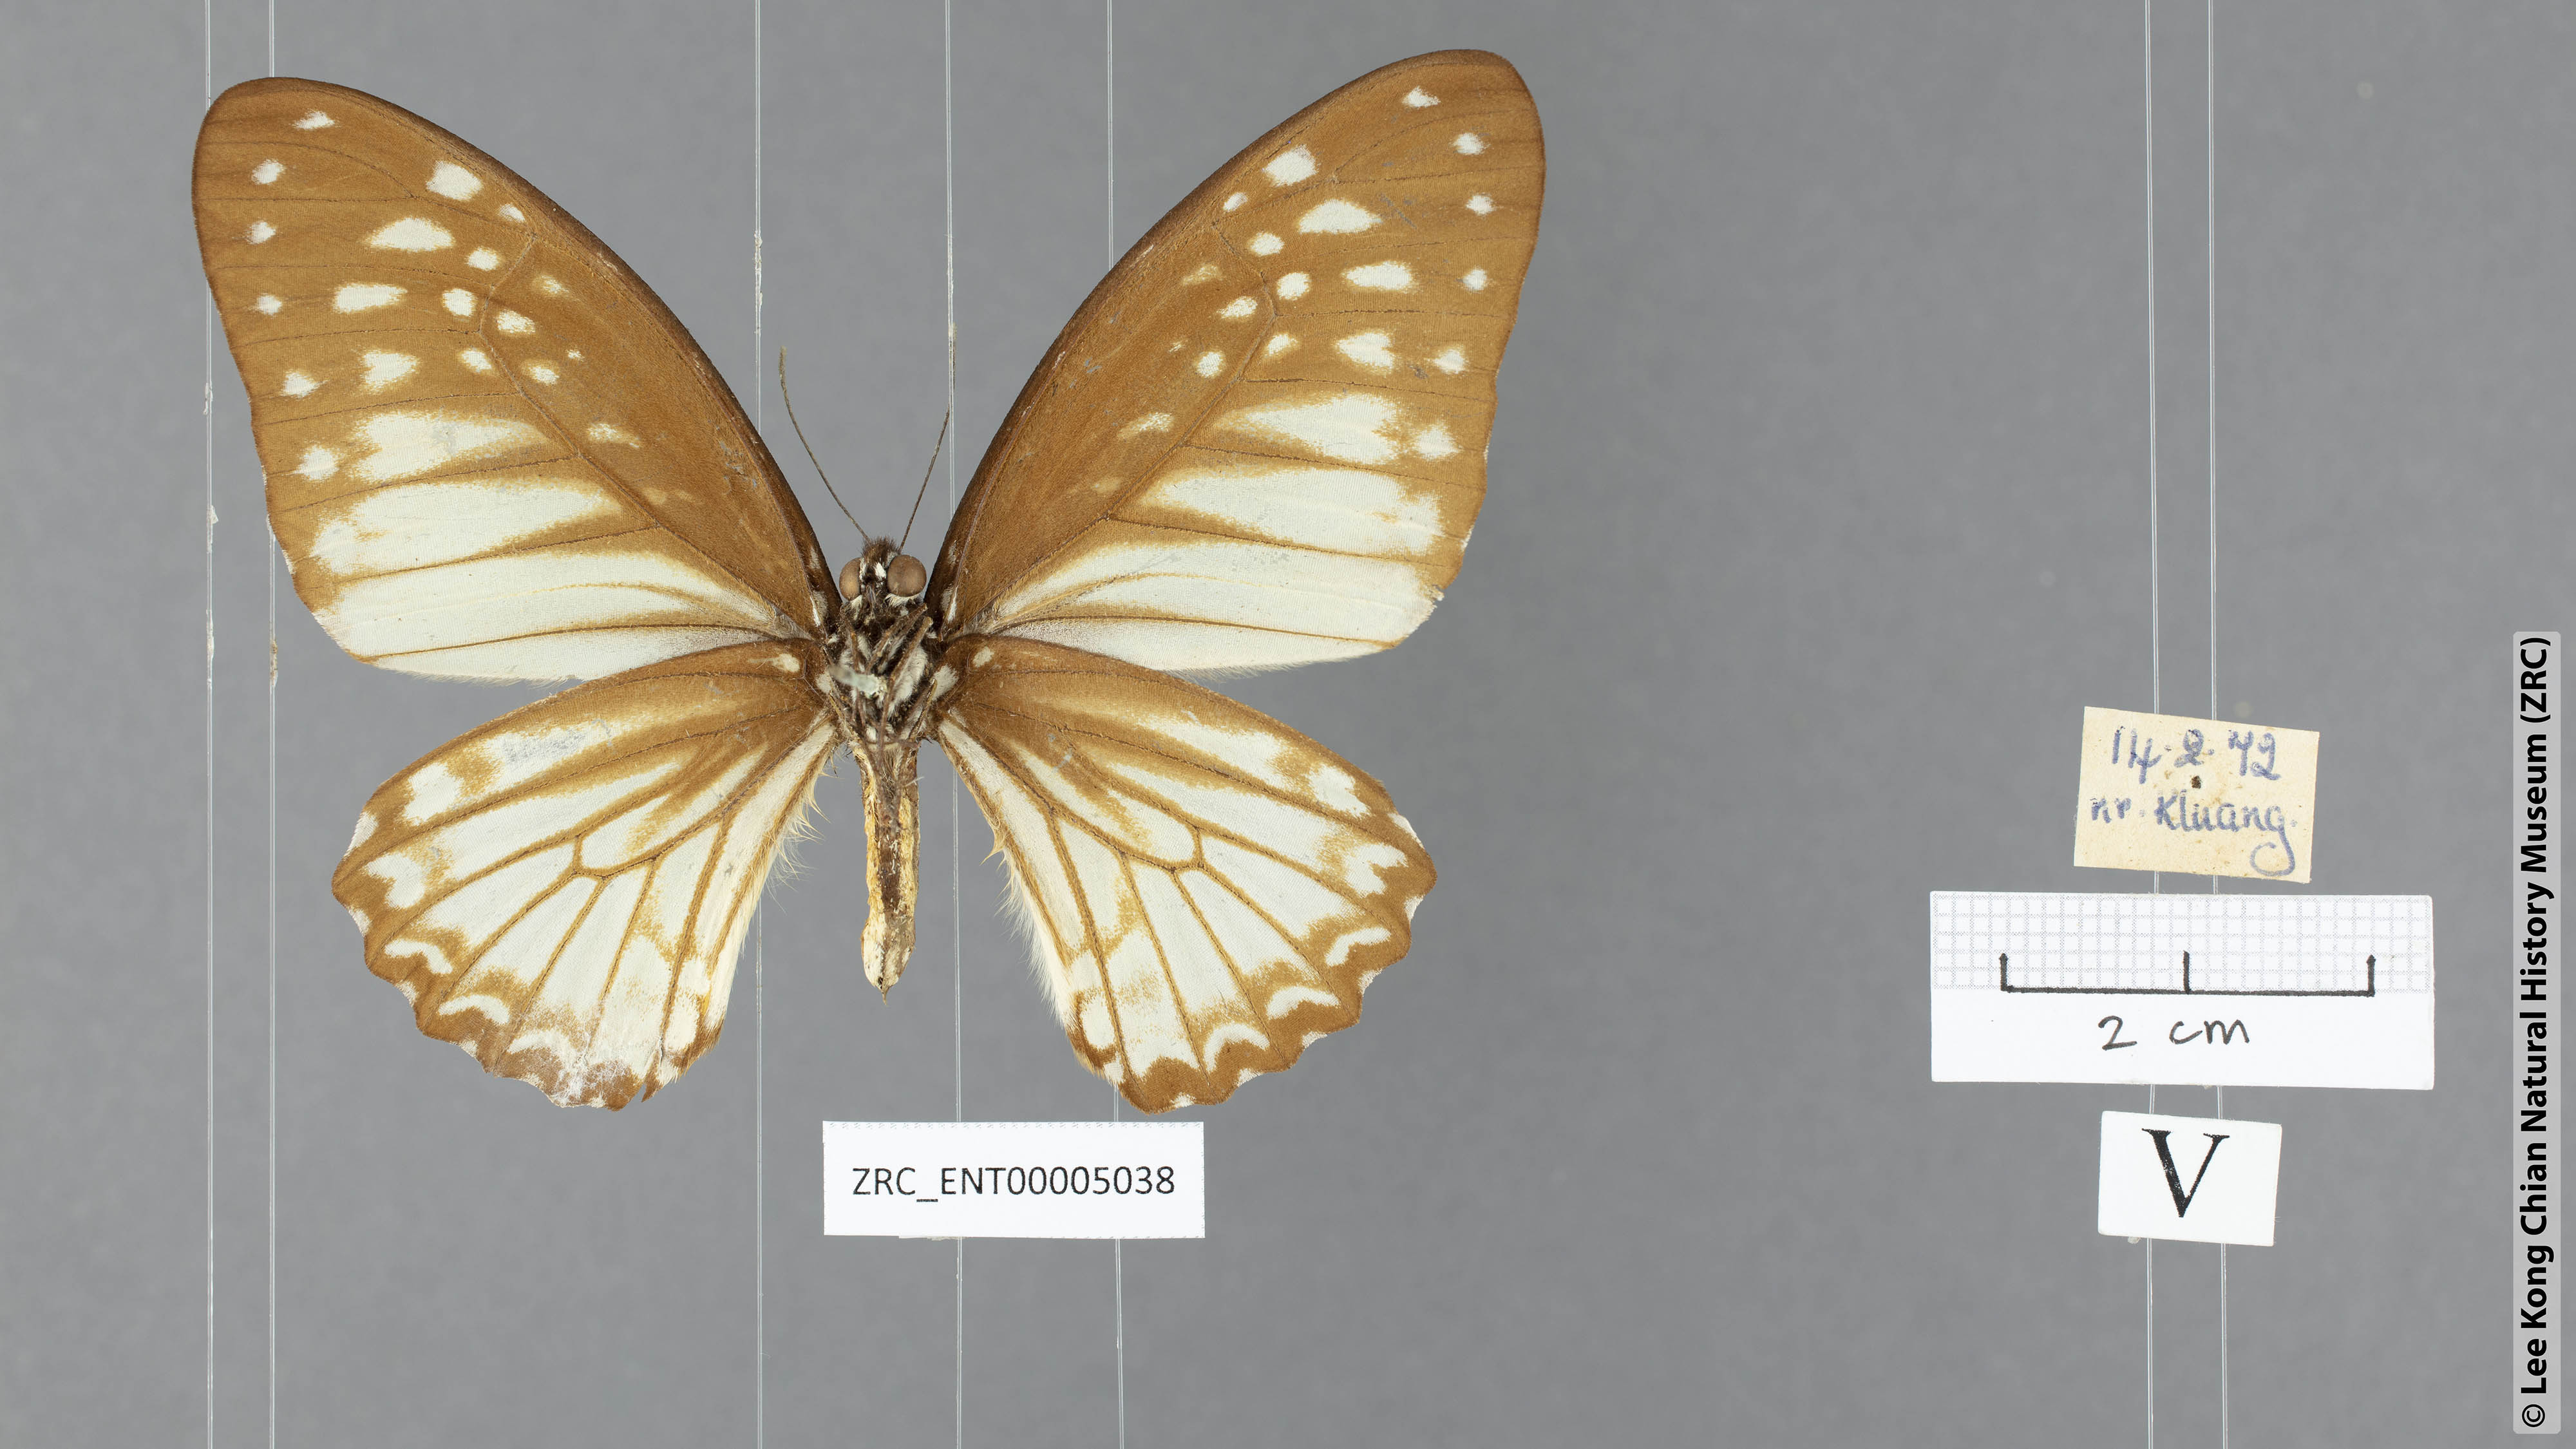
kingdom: Animalia
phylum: Arthropoda
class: Insecta
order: Lepidoptera
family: Papilionidae
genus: Graphium
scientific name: Graphium ramaceus
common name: Pendlebury's zebra
